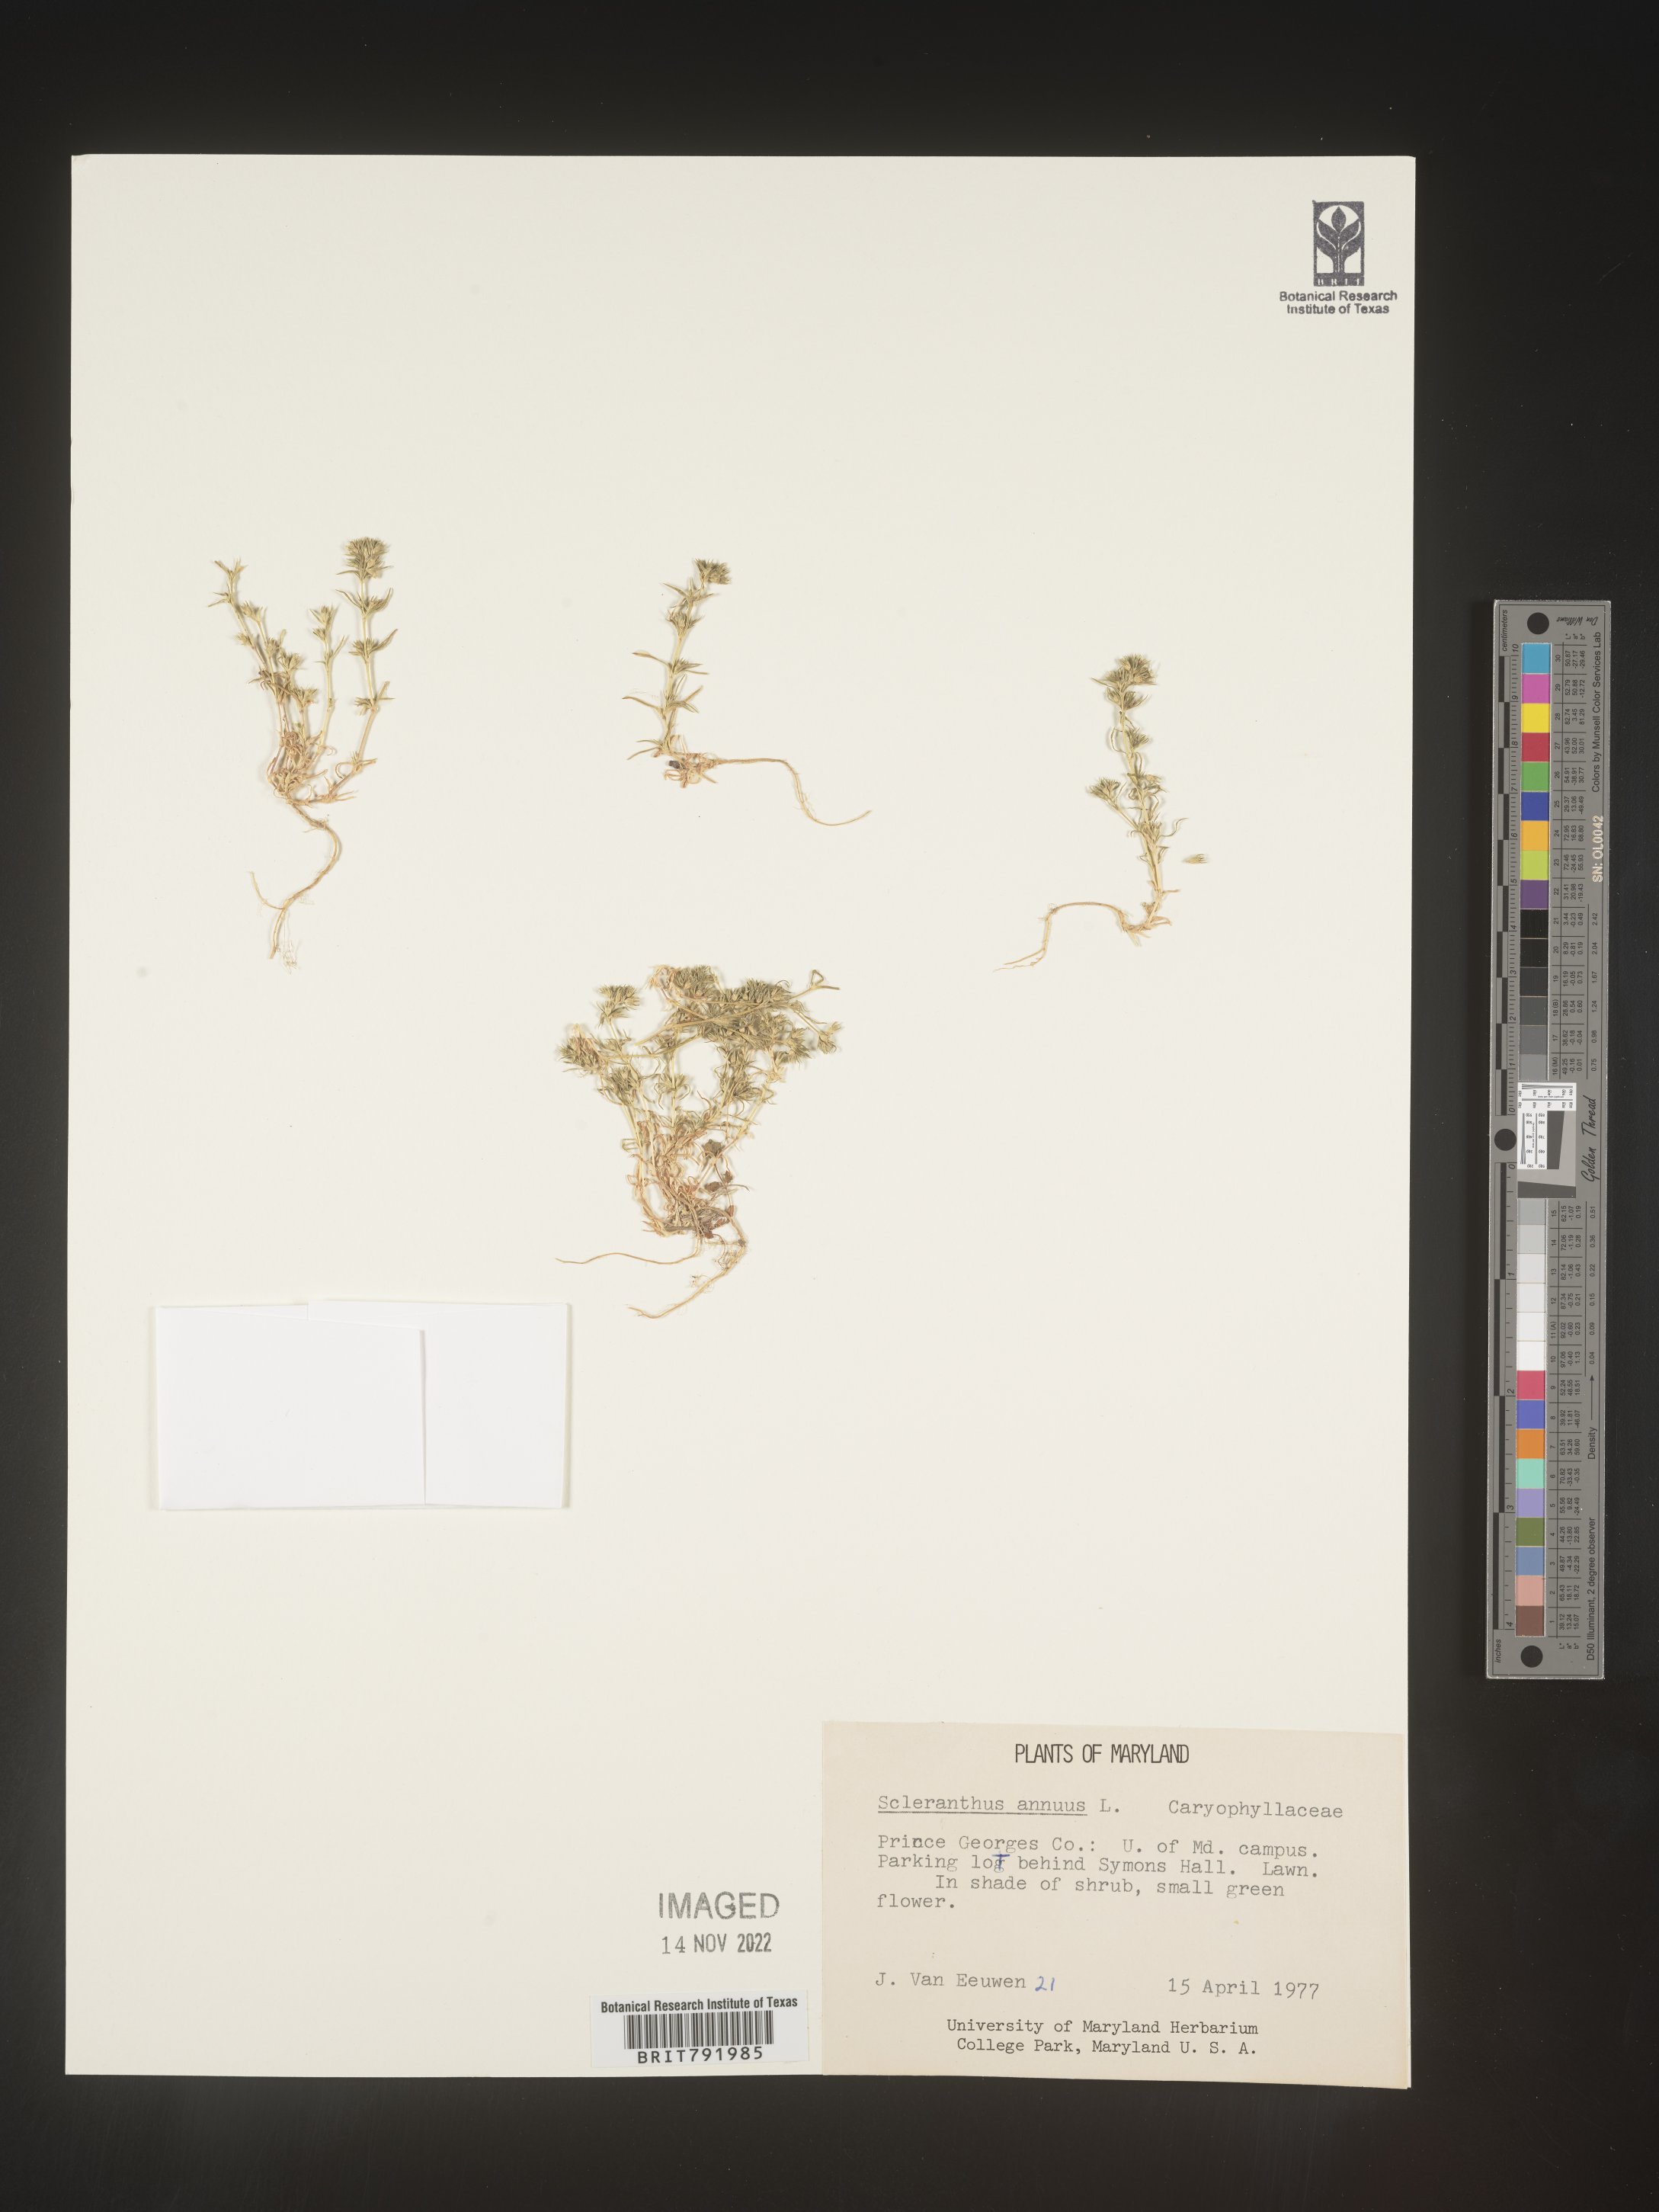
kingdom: Plantae
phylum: Tracheophyta
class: Magnoliopsida
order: Caryophyllales
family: Caryophyllaceae
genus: Scleranthus
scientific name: Scleranthus
